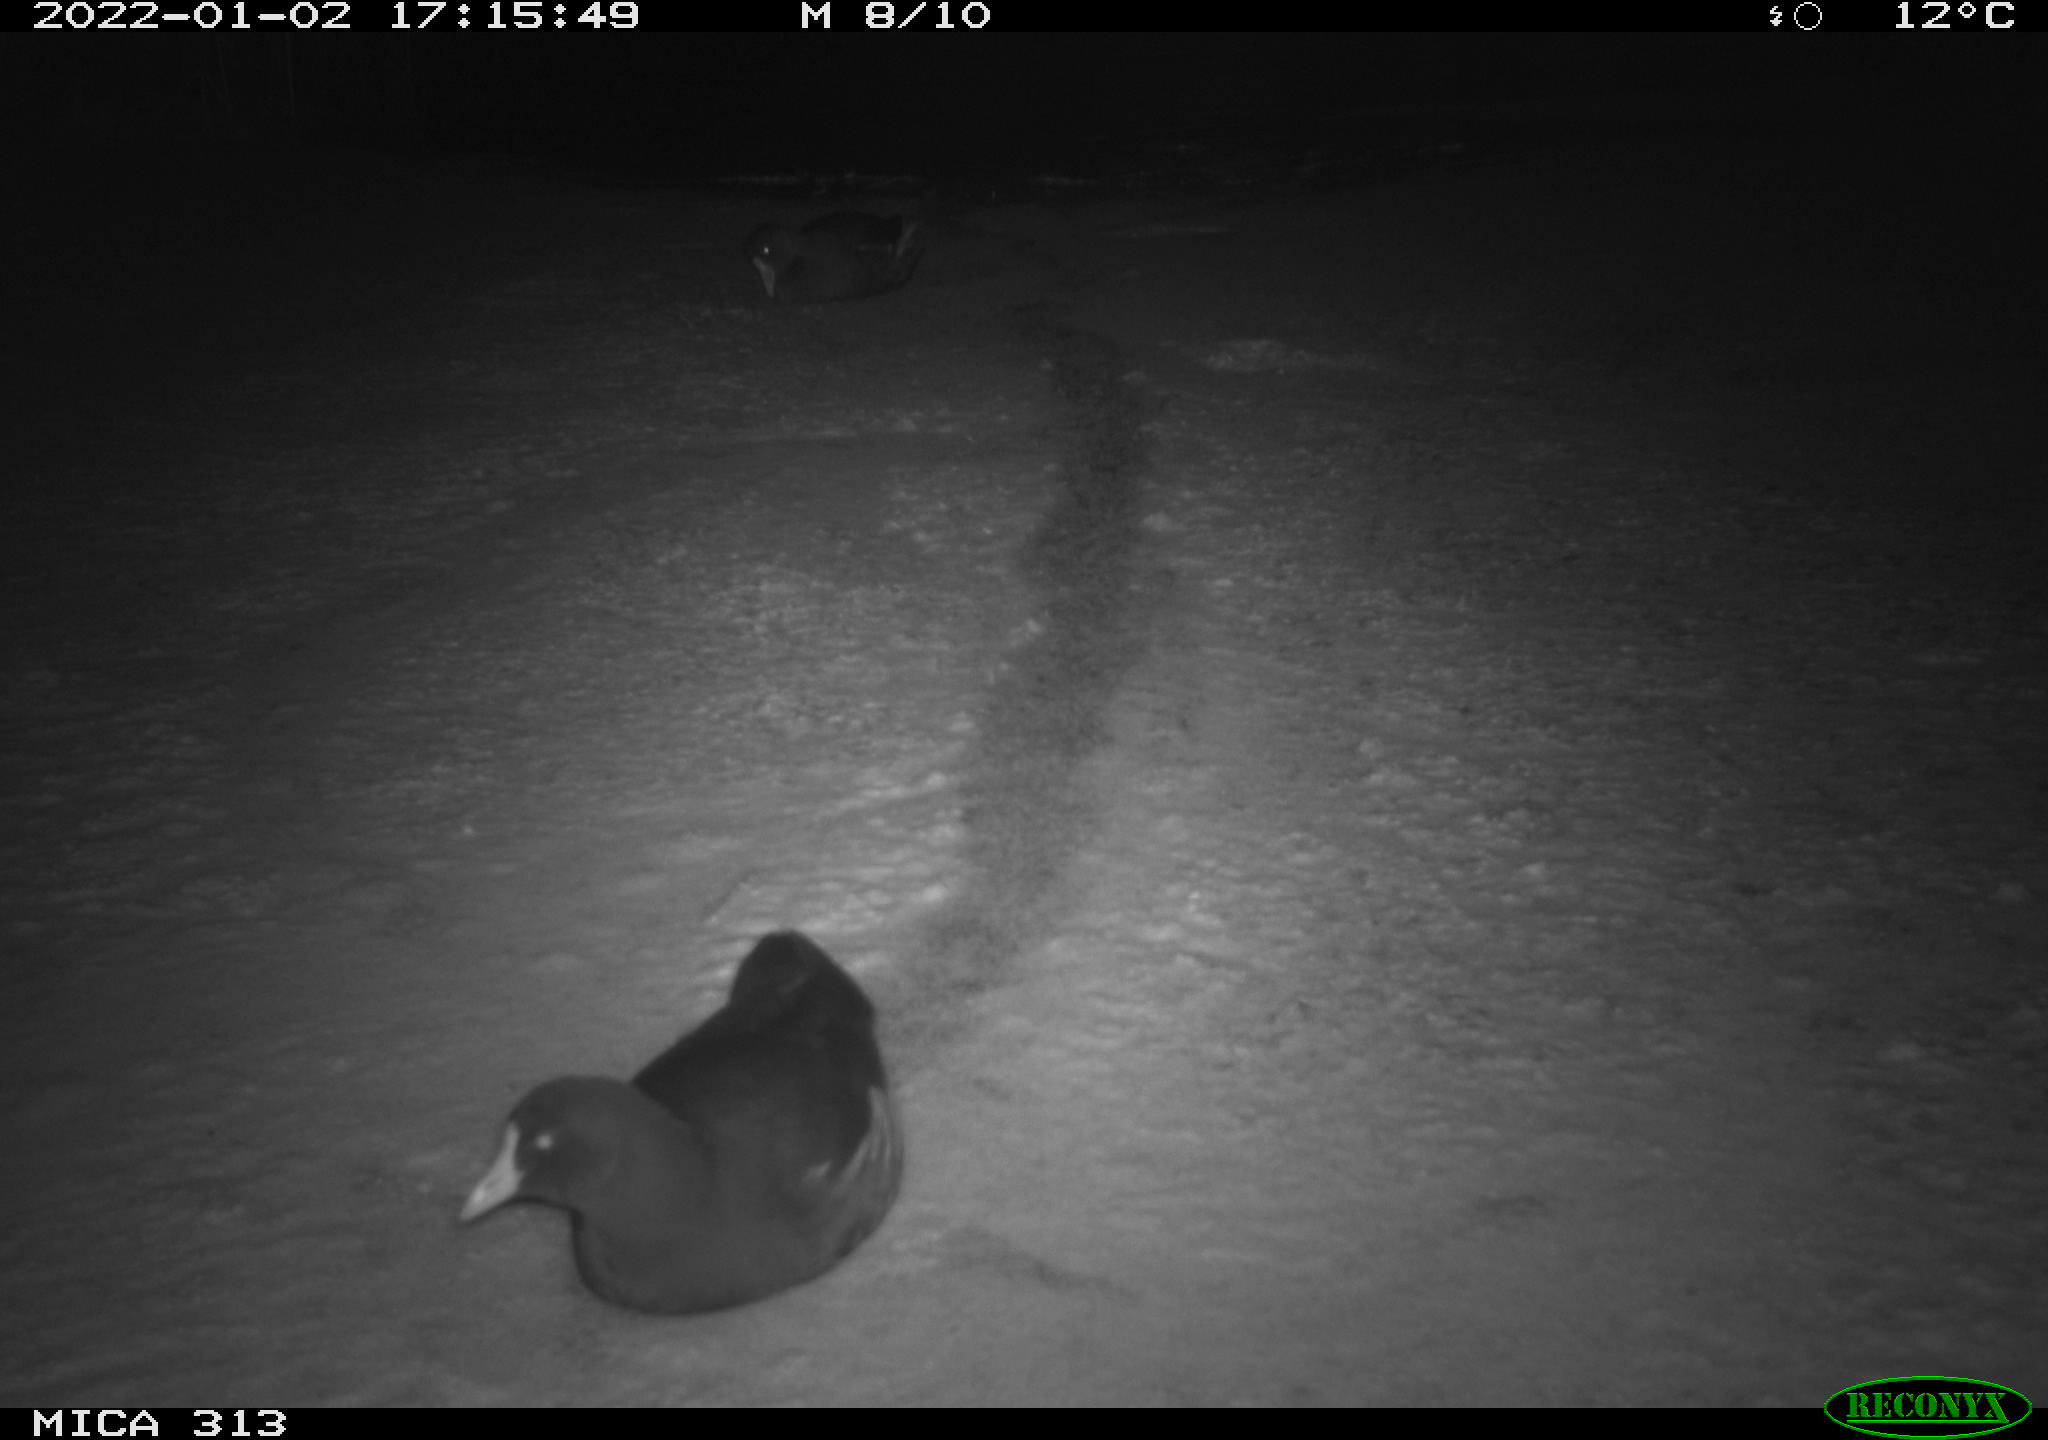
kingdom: Animalia
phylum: Chordata
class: Aves
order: Gruiformes
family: Rallidae
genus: Gallinula
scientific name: Gallinula chloropus
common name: Common moorhen
